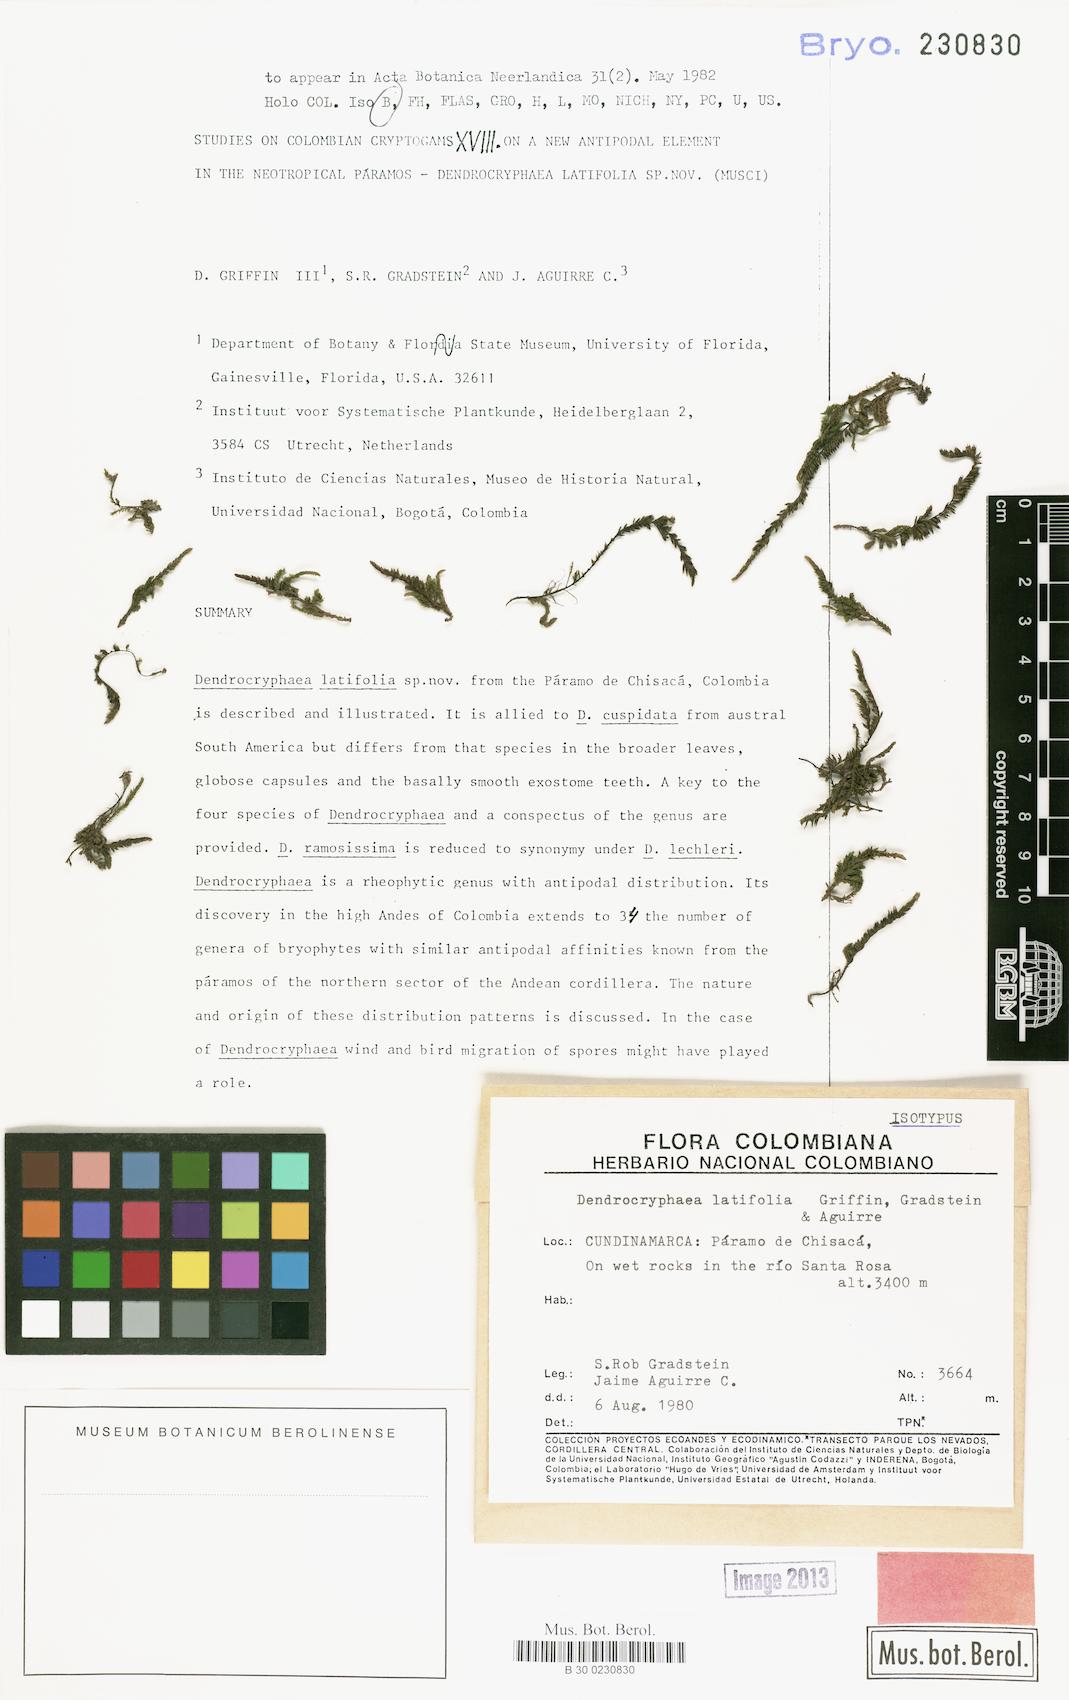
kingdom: Plantae
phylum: Bryophyta
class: Bryopsida
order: Hypnales
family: Cryphaeaceae
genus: Dendrocryphaea
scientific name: Dendrocryphaea latifolia
